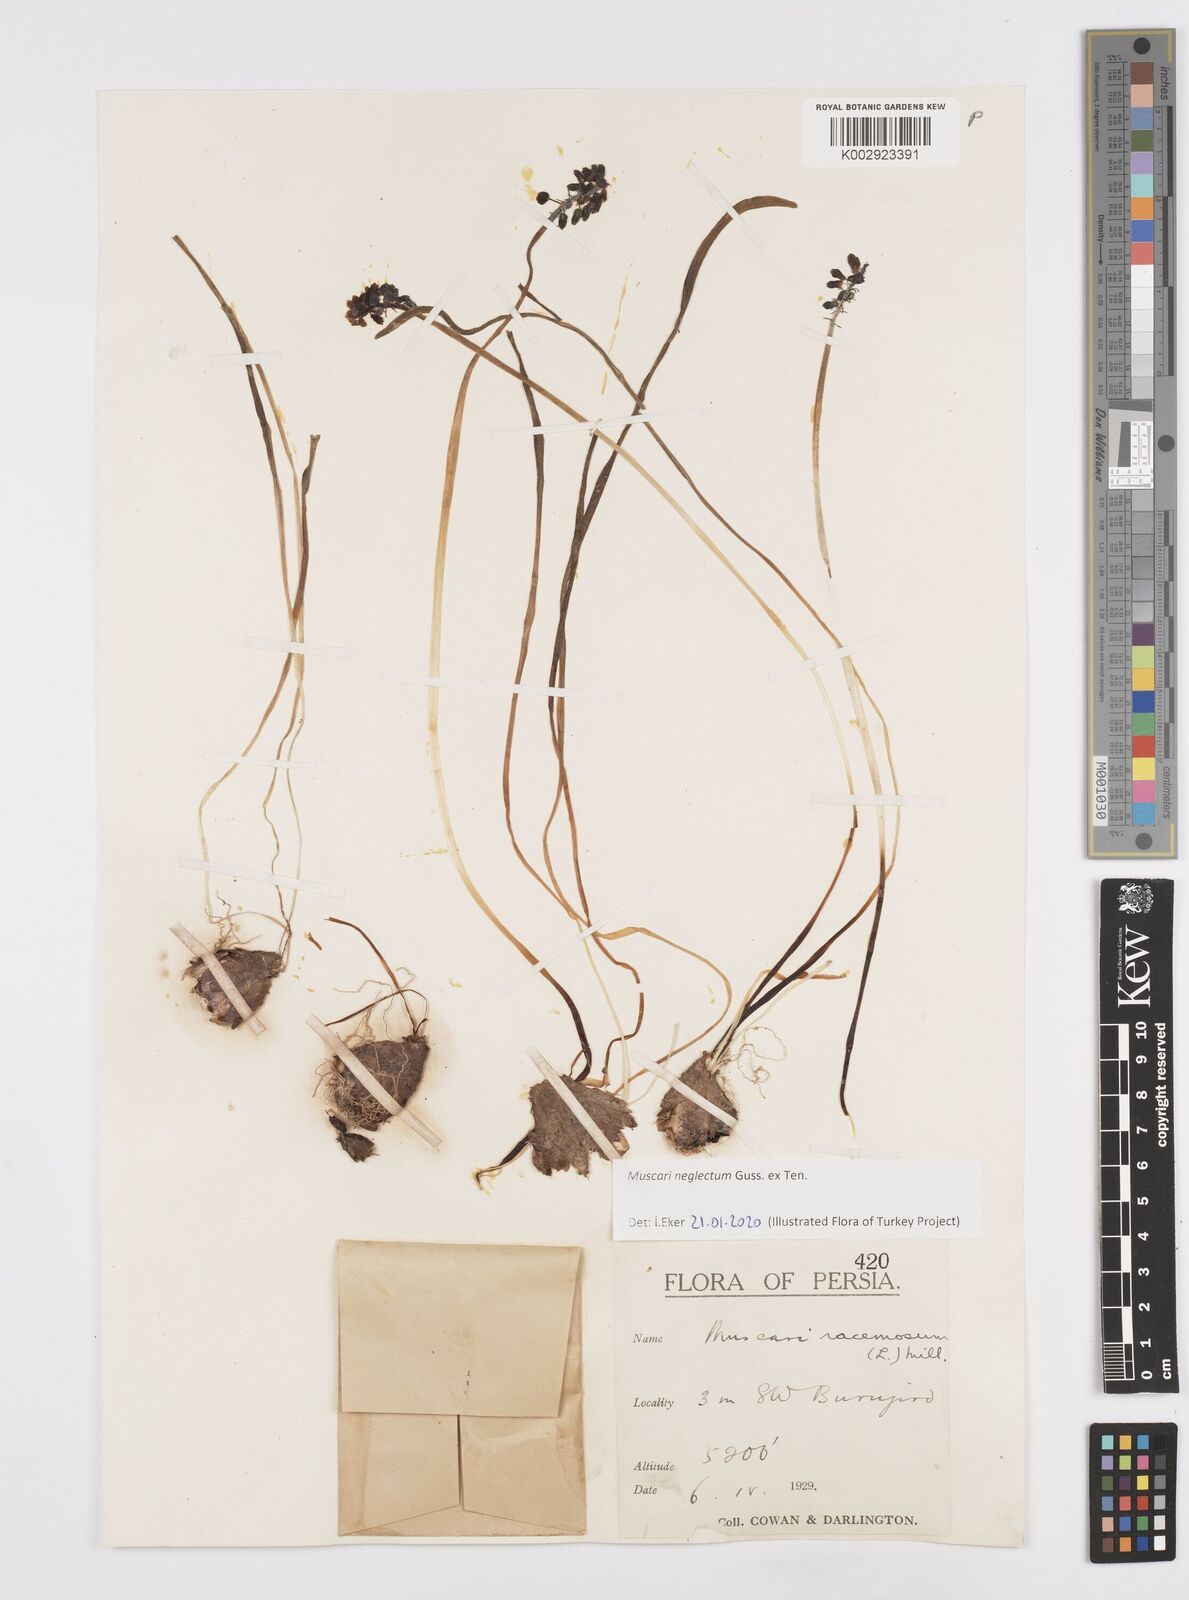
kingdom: Plantae
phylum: Tracheophyta
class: Liliopsida
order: Asparagales
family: Asparagaceae
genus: Muscari
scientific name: Muscari neglectum
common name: Grape-hyacinth
